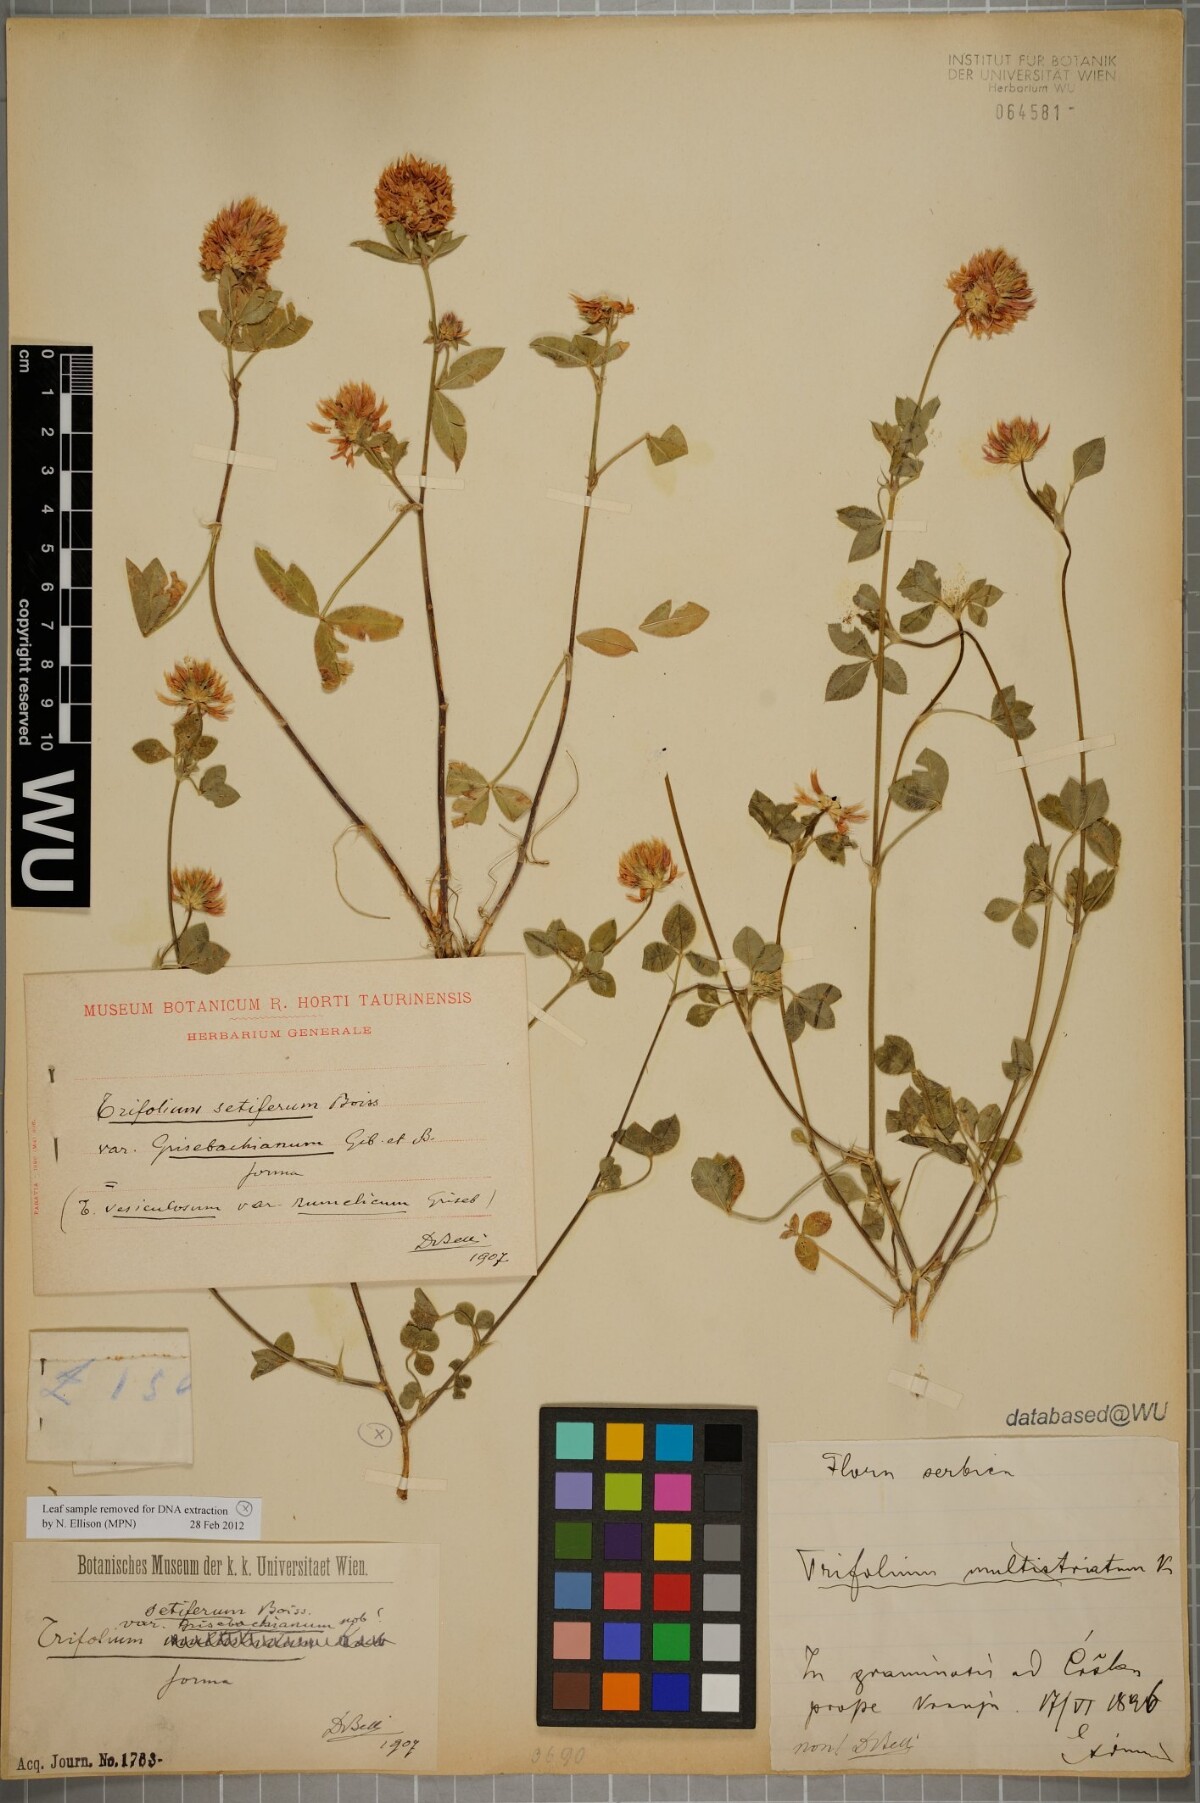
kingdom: Plantae
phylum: Tracheophyta
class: Magnoliopsida
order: Fabales
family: Fabaceae
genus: Trifolium
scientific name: Trifolium setiferum
